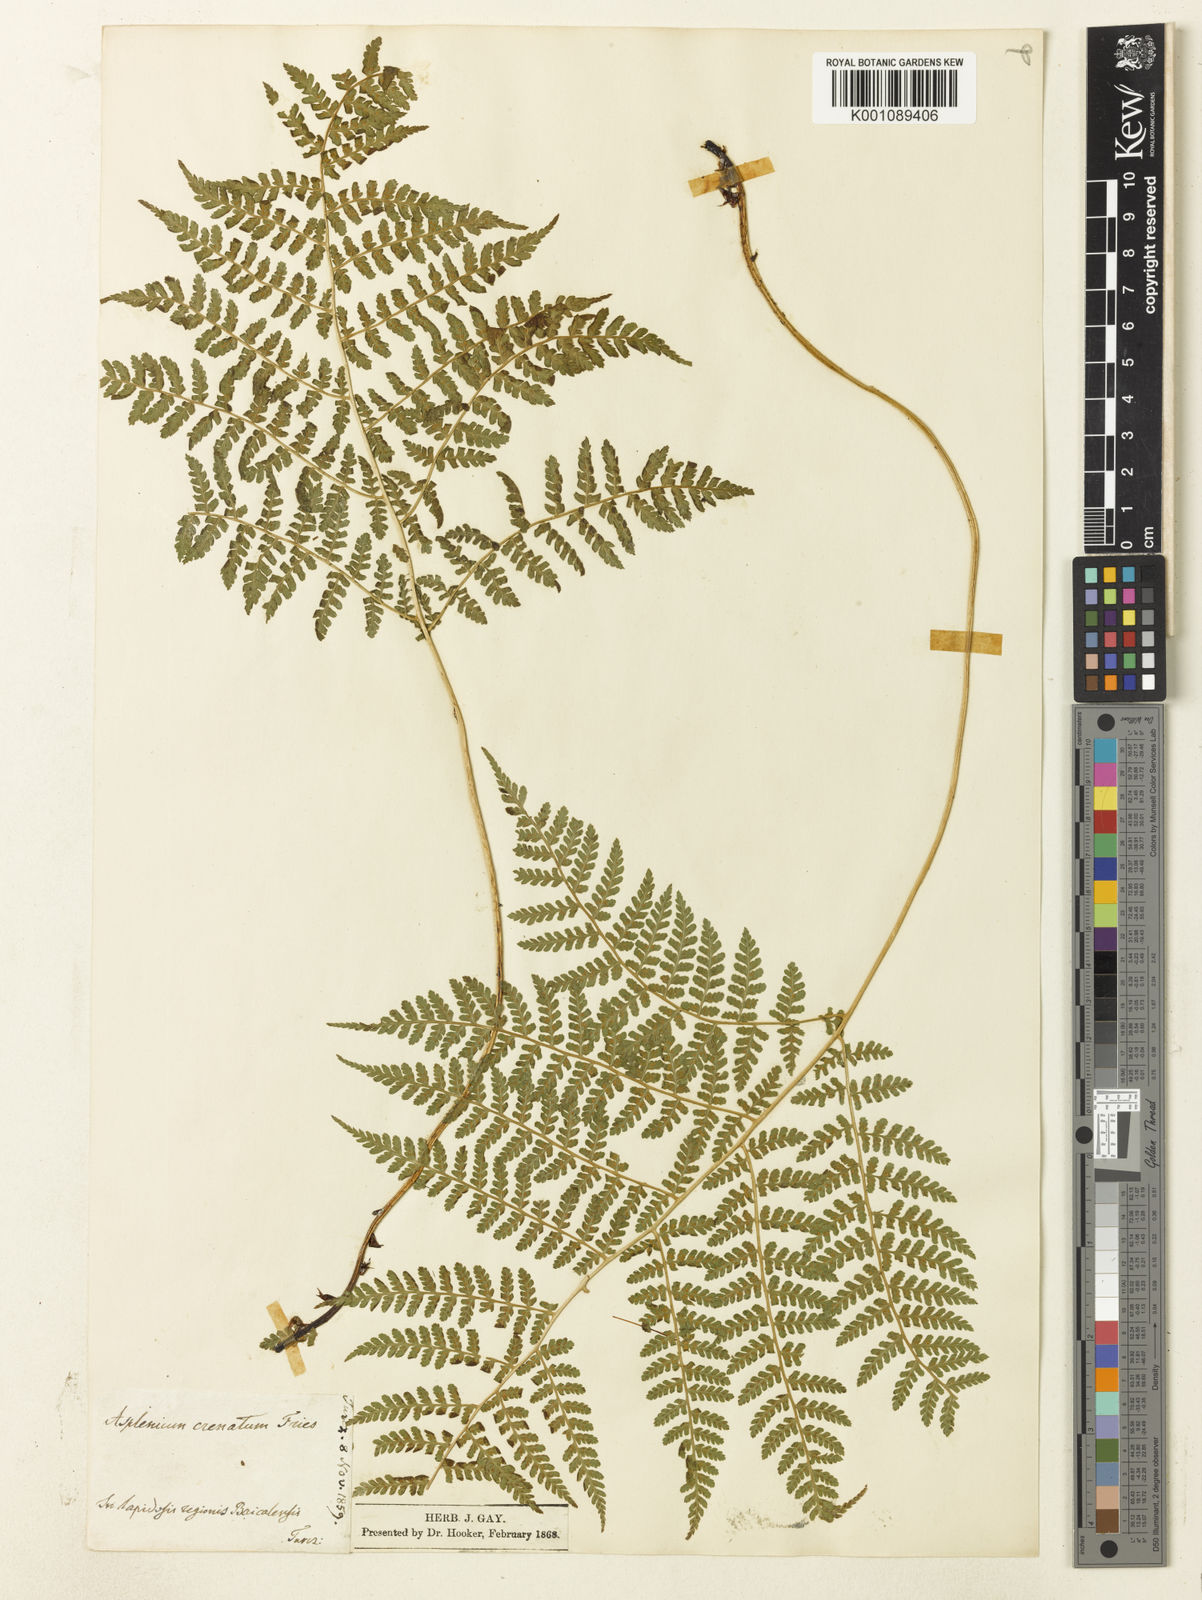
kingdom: Plantae
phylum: Tracheophyta
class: Polypodiopsida
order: Polypodiales
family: Athyriaceae
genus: Diplazium
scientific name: Diplazium sibiricum
